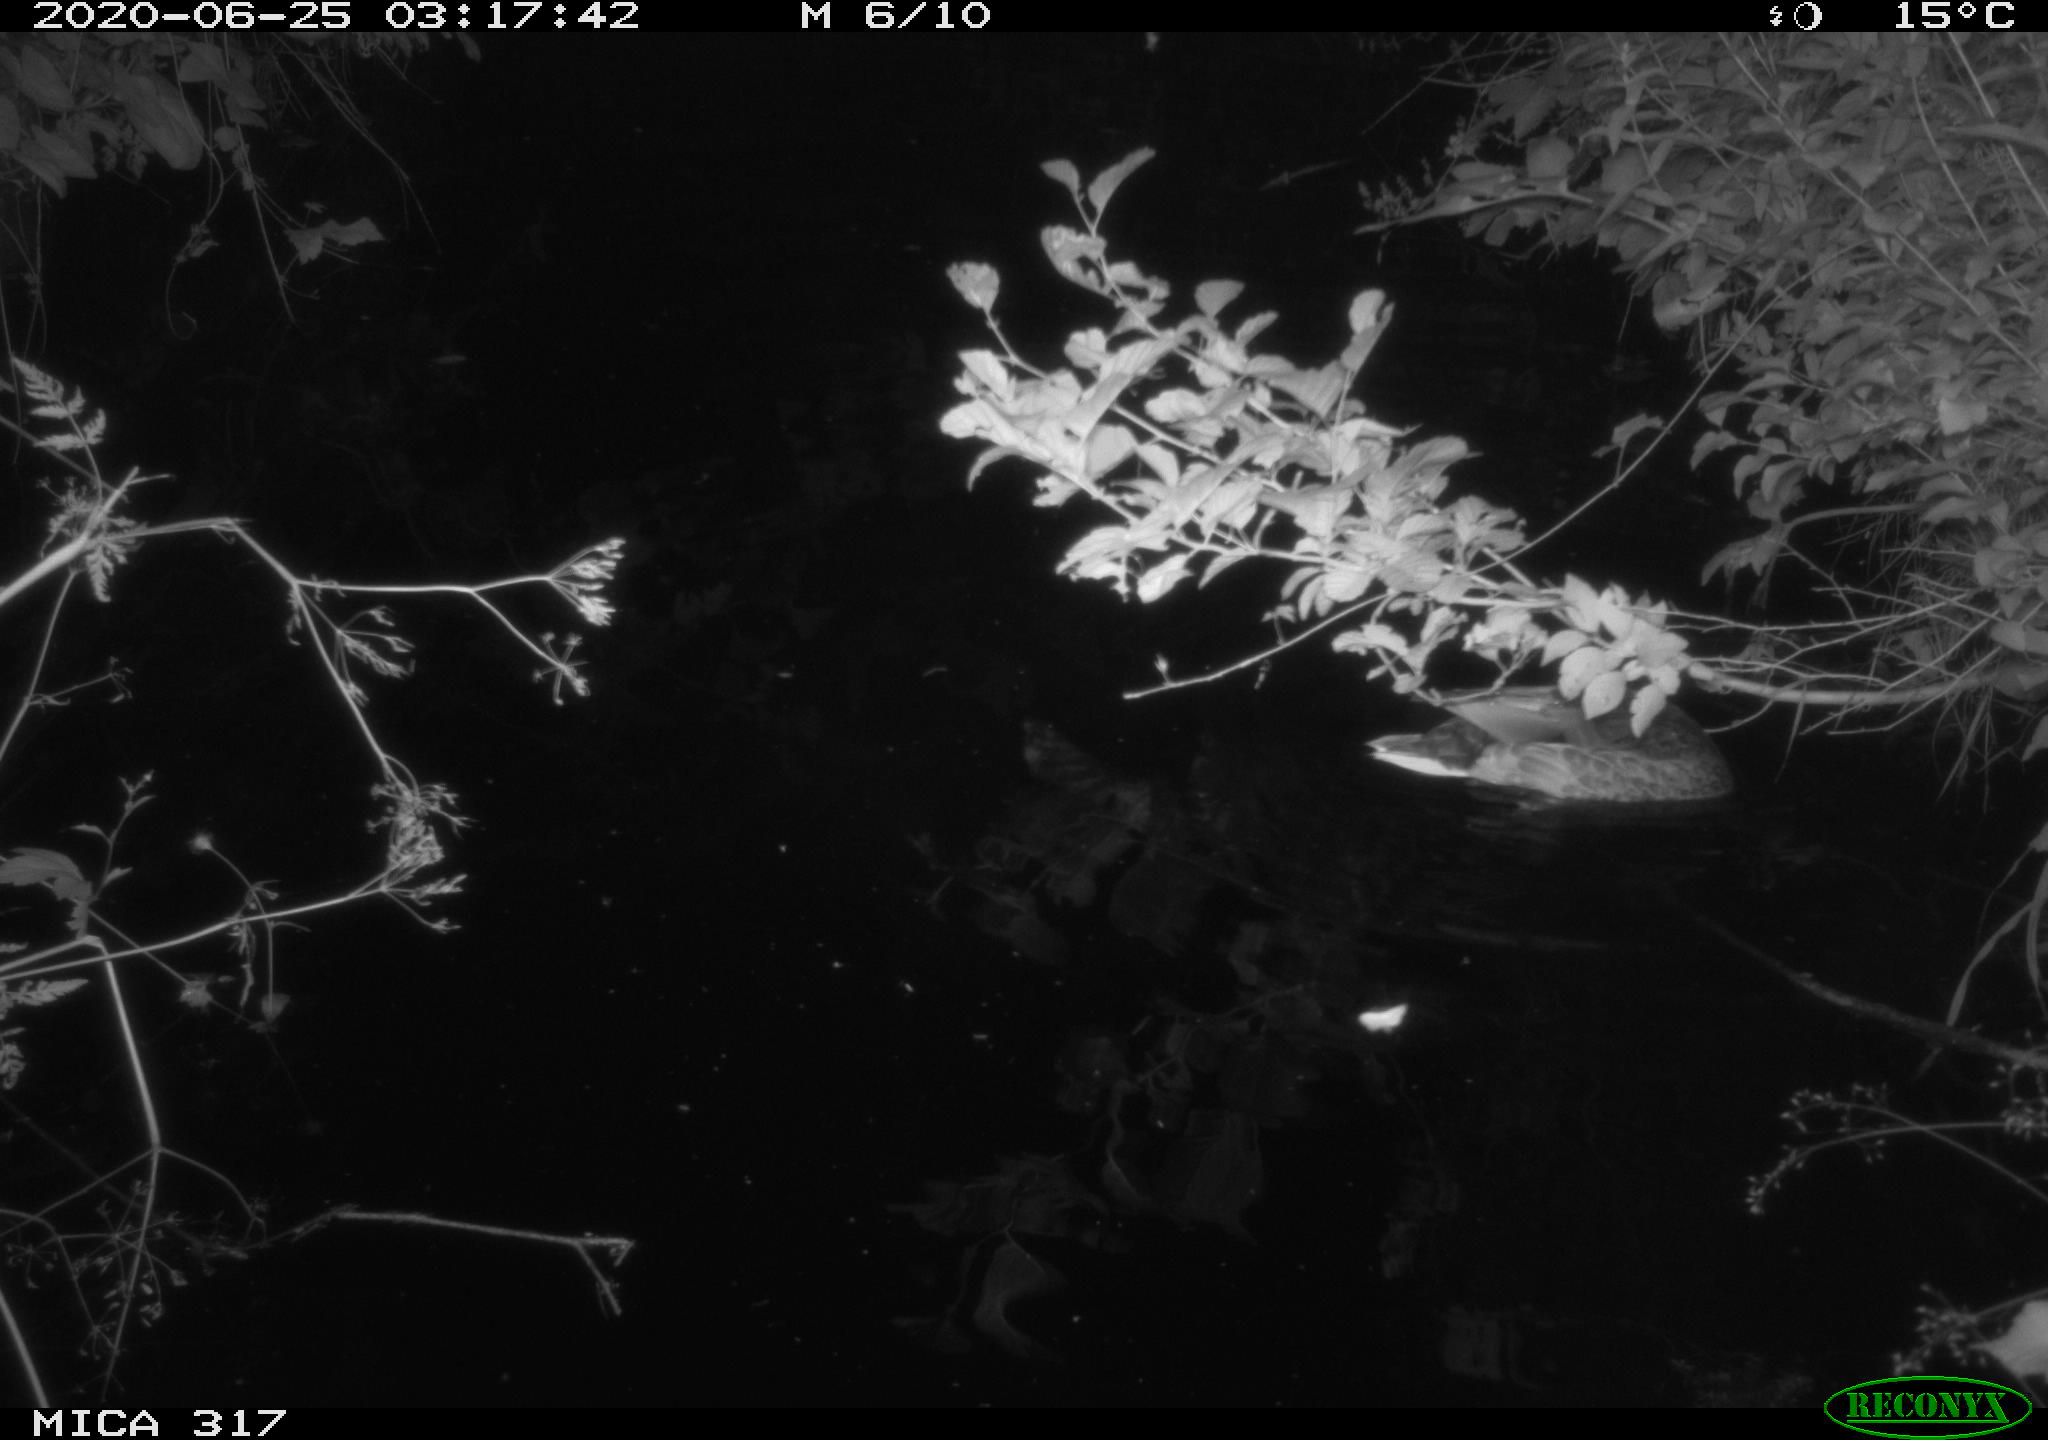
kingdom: Animalia
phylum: Chordata
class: Aves
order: Anseriformes
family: Anatidae
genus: Anas
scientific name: Anas platyrhynchos
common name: Mallard
